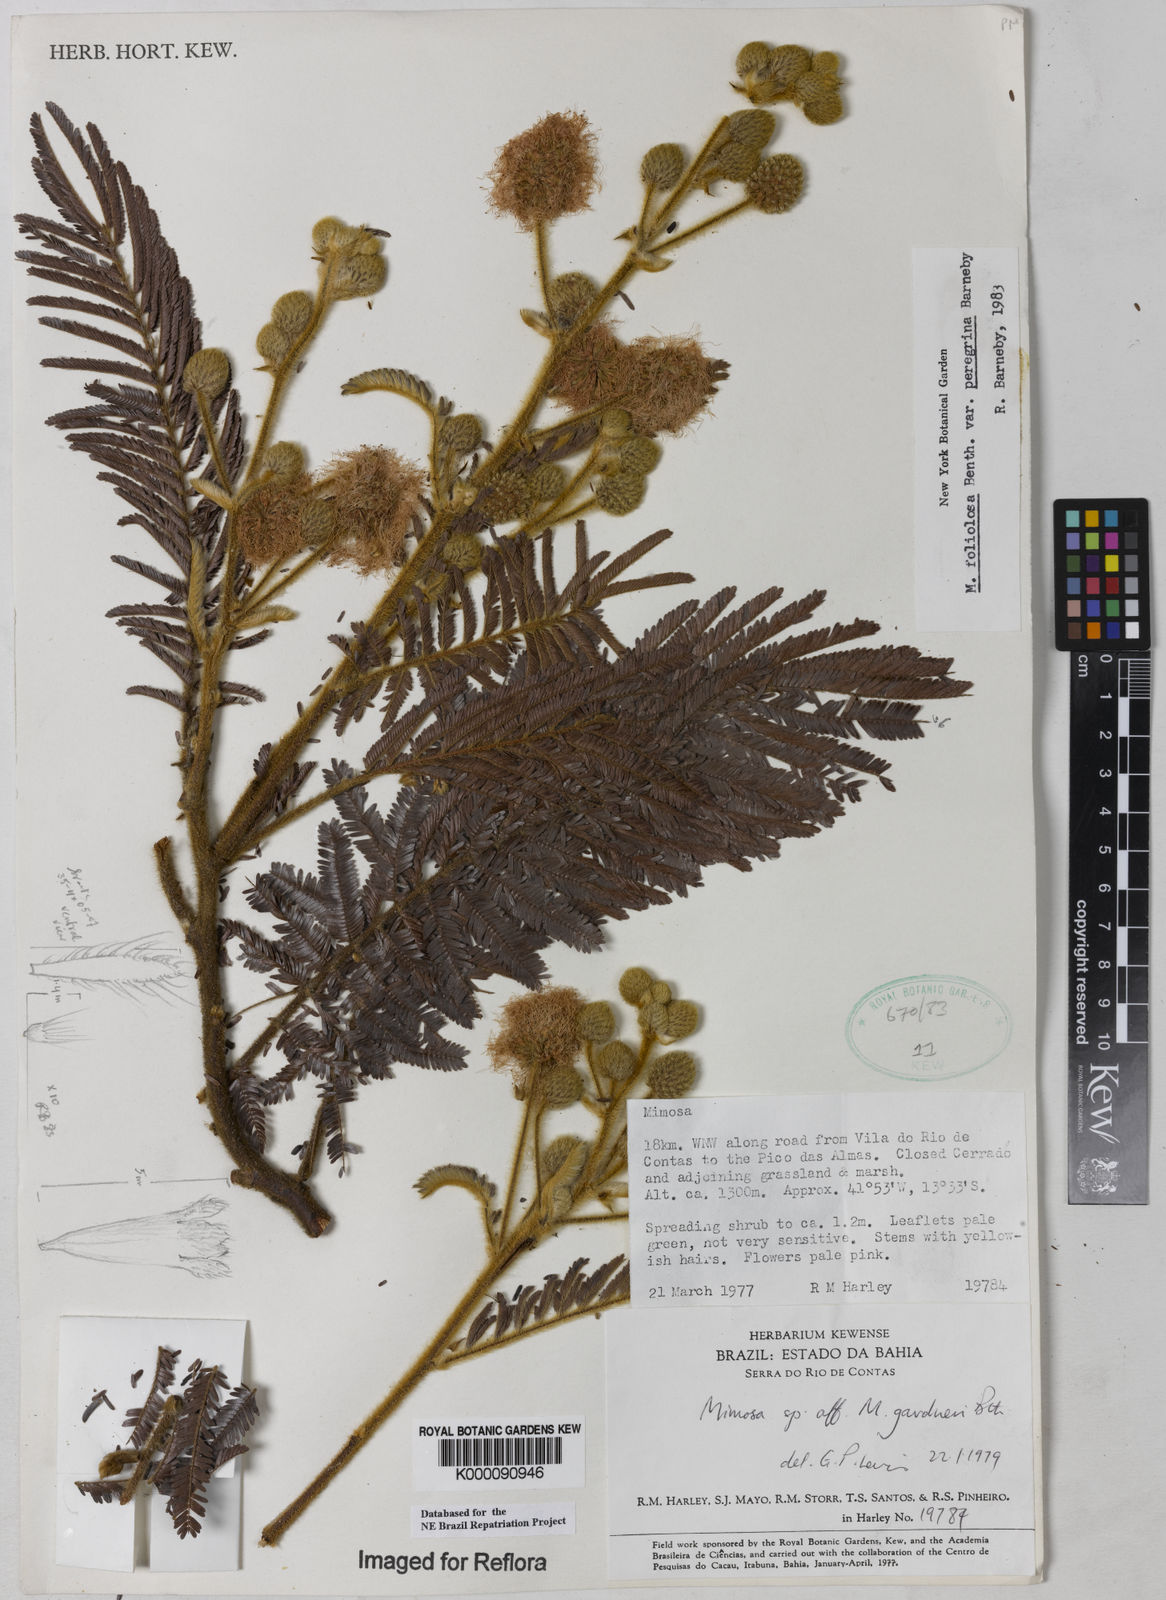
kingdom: Plantae
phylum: Tracheophyta
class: Magnoliopsida
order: Fabales
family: Fabaceae
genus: Mimosa
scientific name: Mimosa foliolosa
